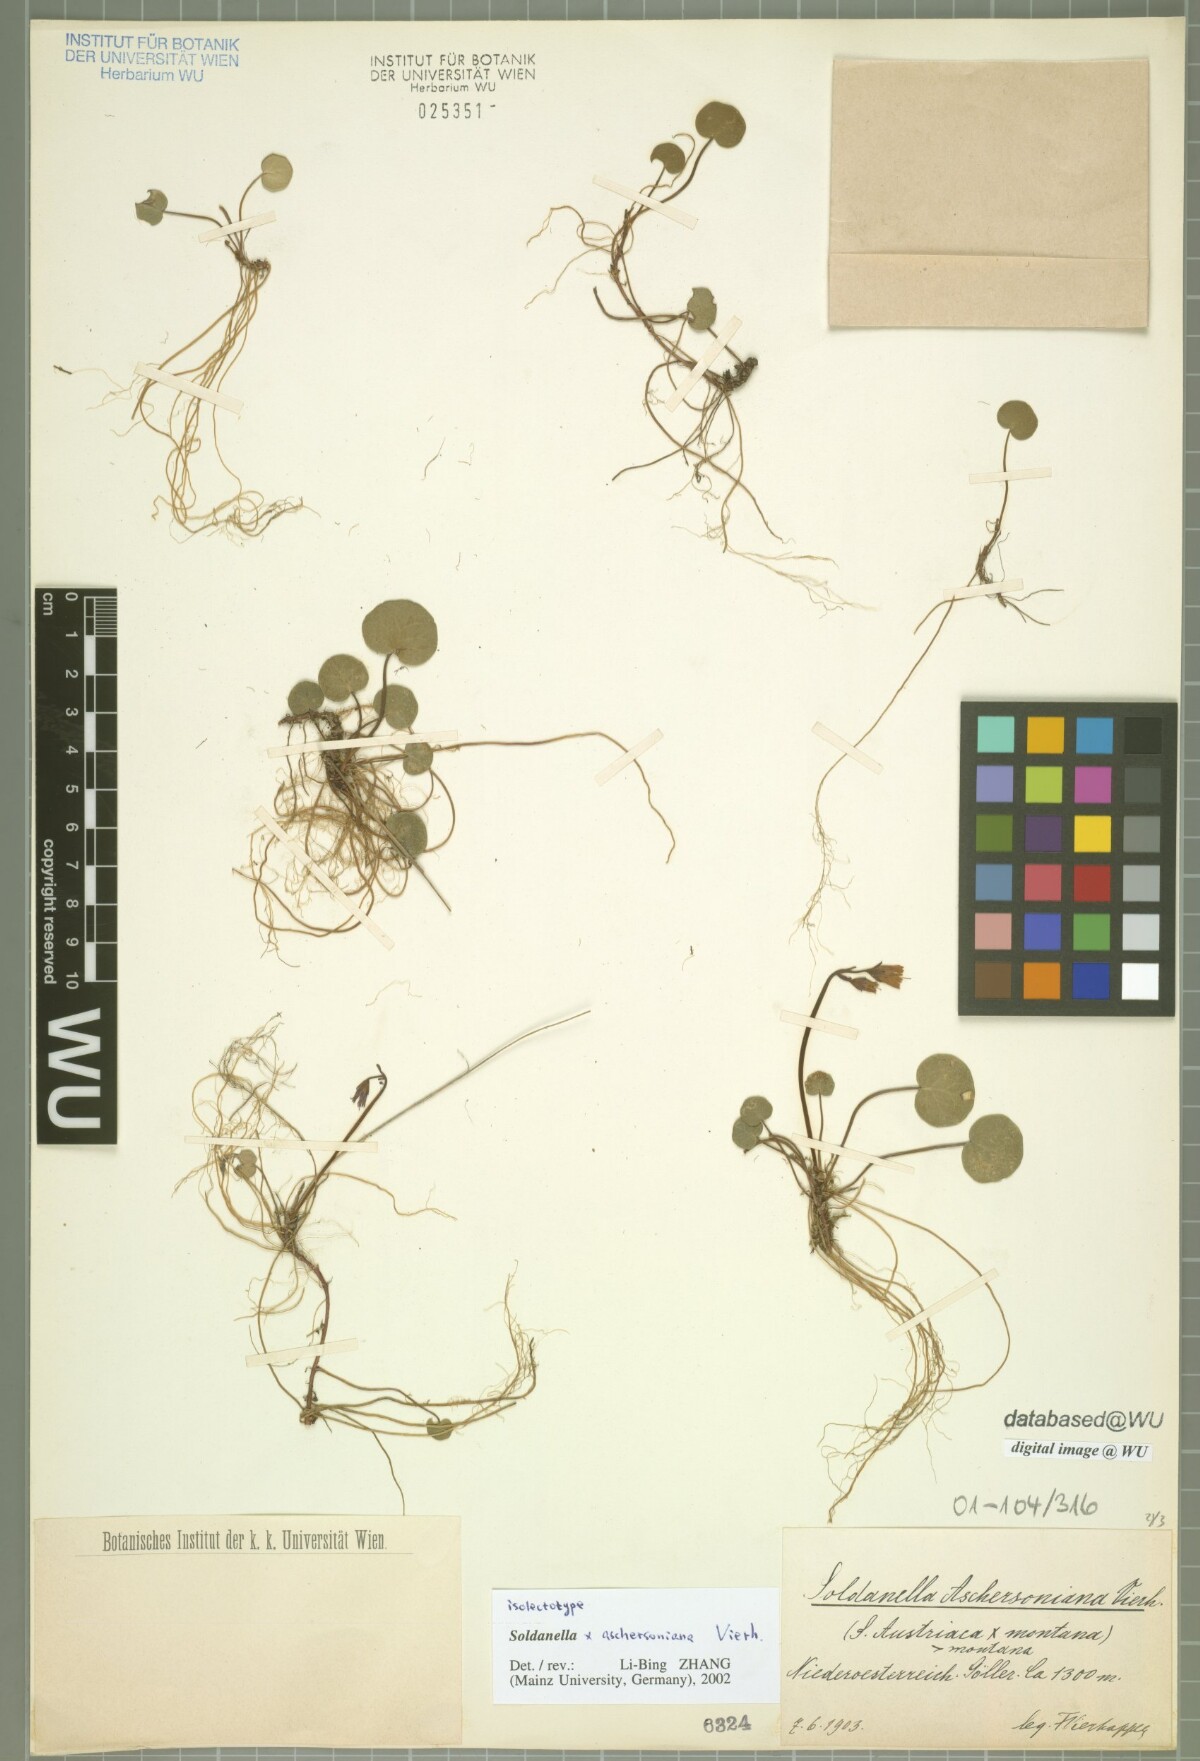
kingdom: Plantae
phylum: Tracheophyta
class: Magnoliopsida
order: Ericales
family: Primulaceae
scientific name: Primulaceae
